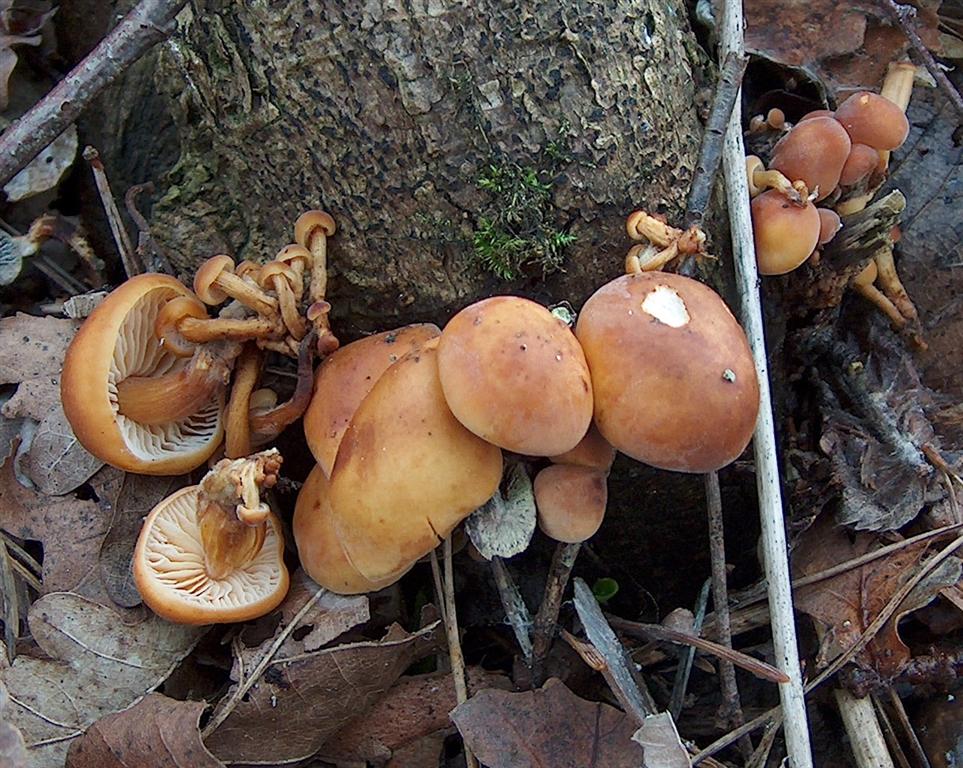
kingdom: Fungi
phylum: Basidiomycota
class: Agaricomycetes
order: Agaricales
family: Physalacriaceae
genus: Flammulina
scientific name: Flammulina velutipes
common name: gul fløjlsfod
